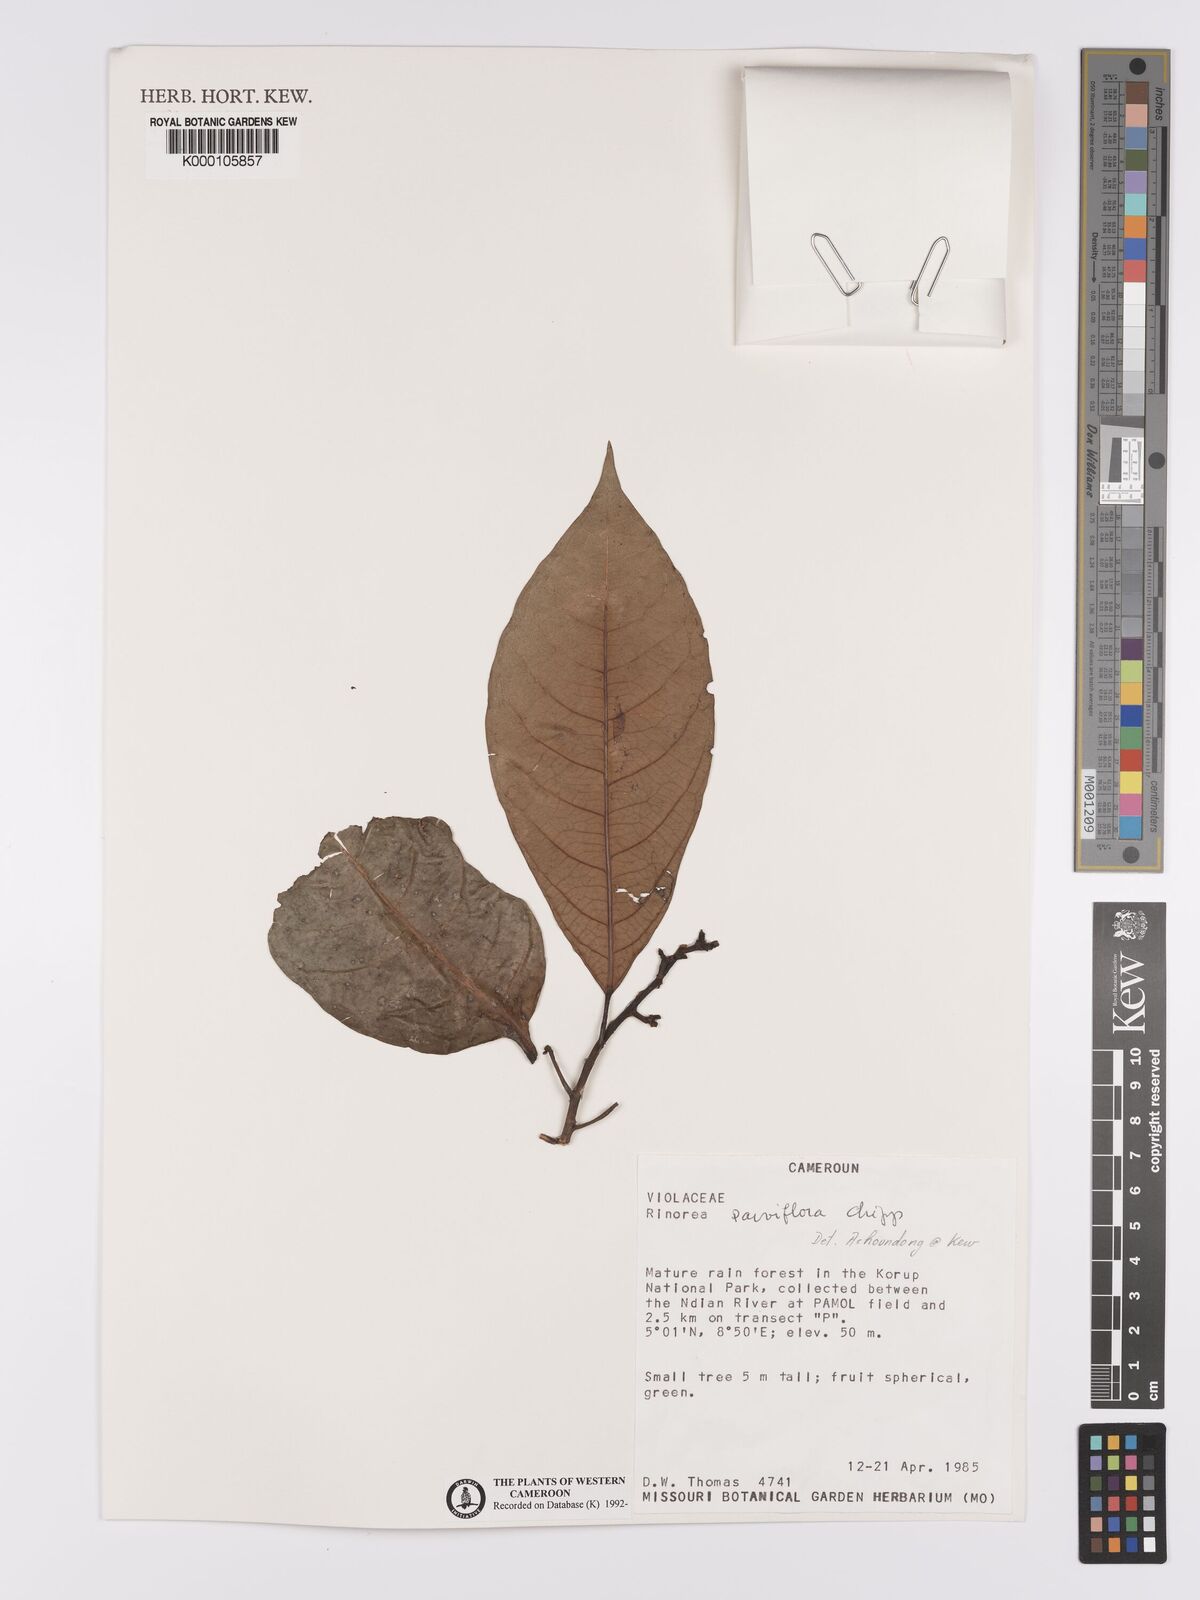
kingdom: Plantae
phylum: Tracheophyta
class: Magnoliopsida
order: Malpighiales
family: Violaceae
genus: Rinorea
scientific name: Rinorea parviflora
